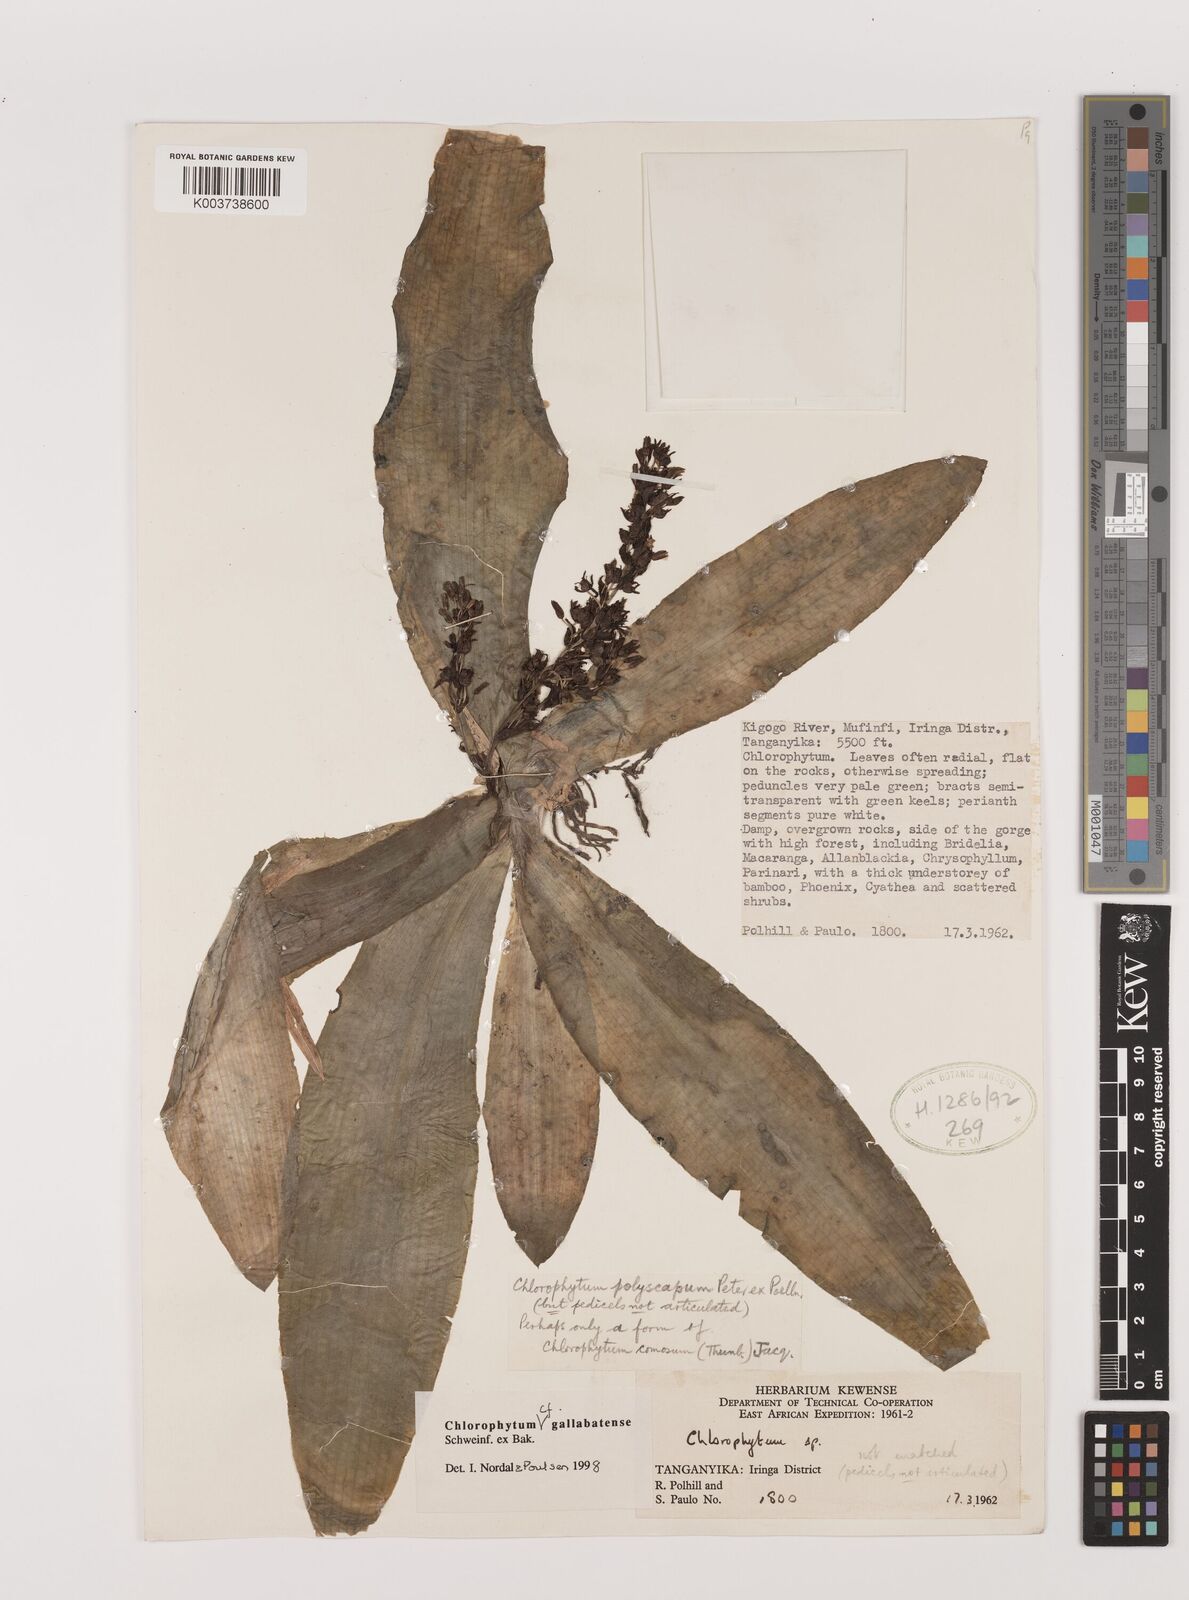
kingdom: Plantae
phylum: Tracheophyta
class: Liliopsida
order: Asparagales
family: Asparagaceae
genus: Chlorophytum
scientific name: Chlorophytum gallabatense
